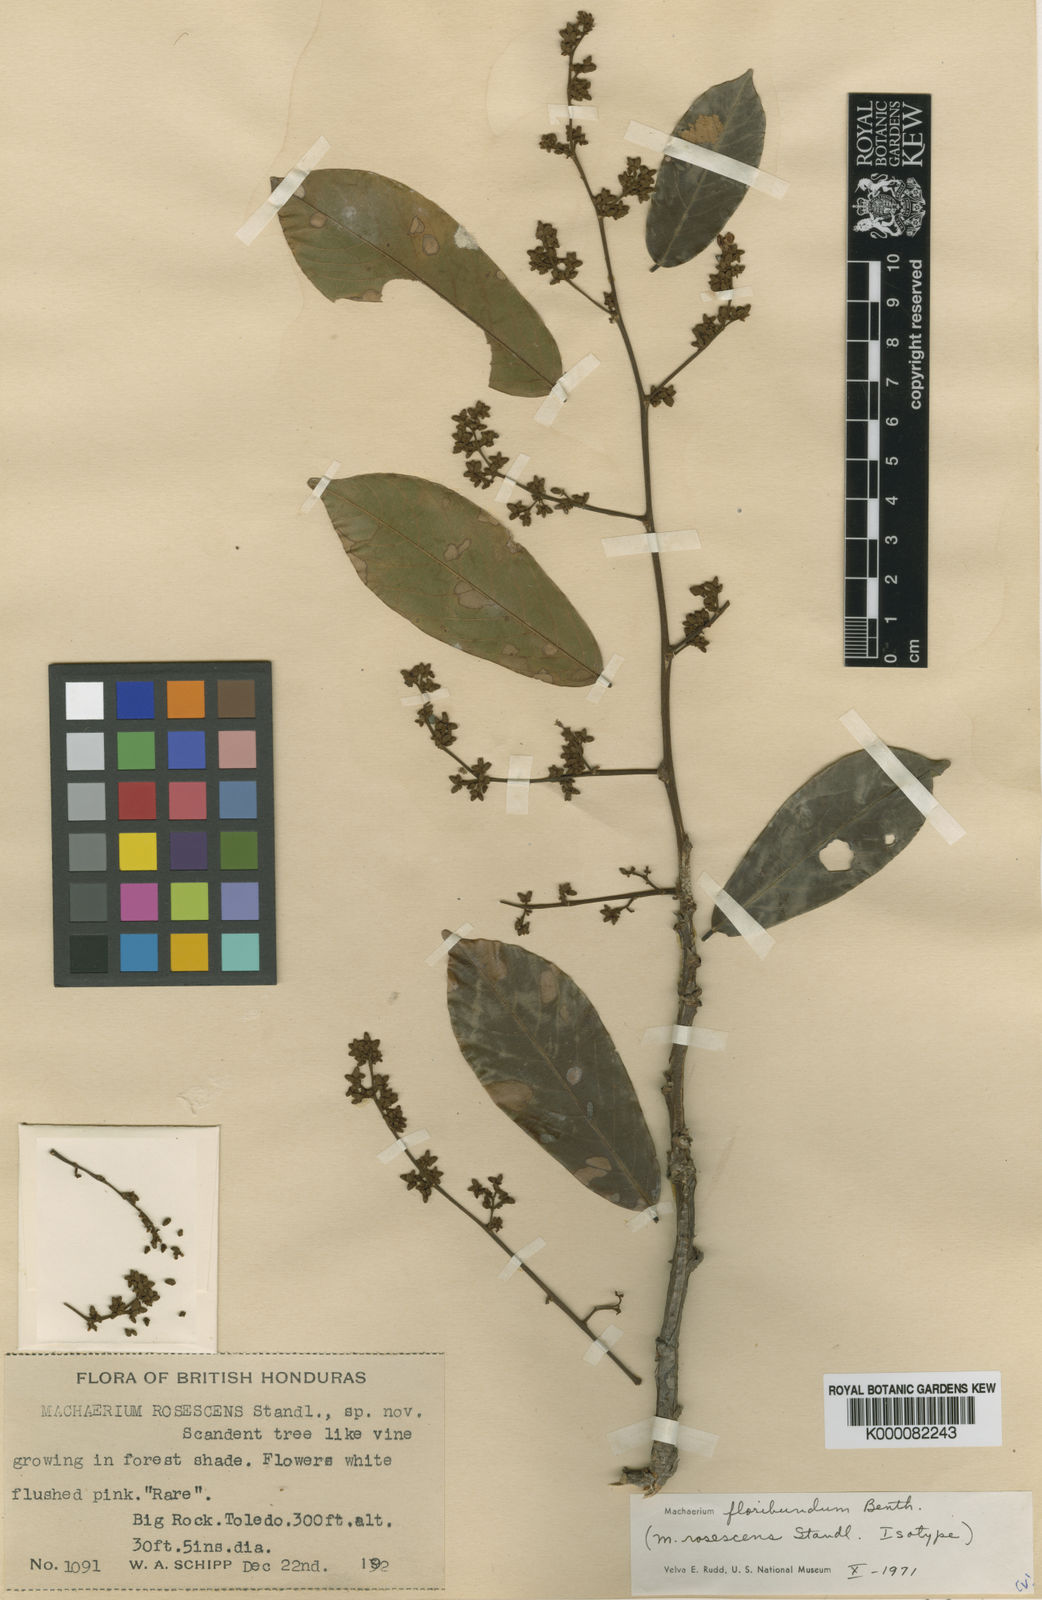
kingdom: Plantae
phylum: Tracheophyta
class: Magnoliopsida
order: Fabales
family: Fabaceae
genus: Machaerium
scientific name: Machaerium floribundum
